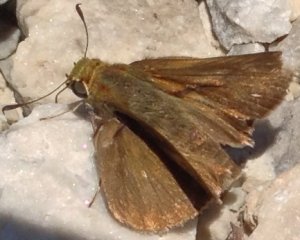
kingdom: Animalia
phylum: Arthropoda
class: Insecta
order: Lepidoptera
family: Hesperiidae
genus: Euphyes
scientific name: Euphyes vestris
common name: Dun Skipper
